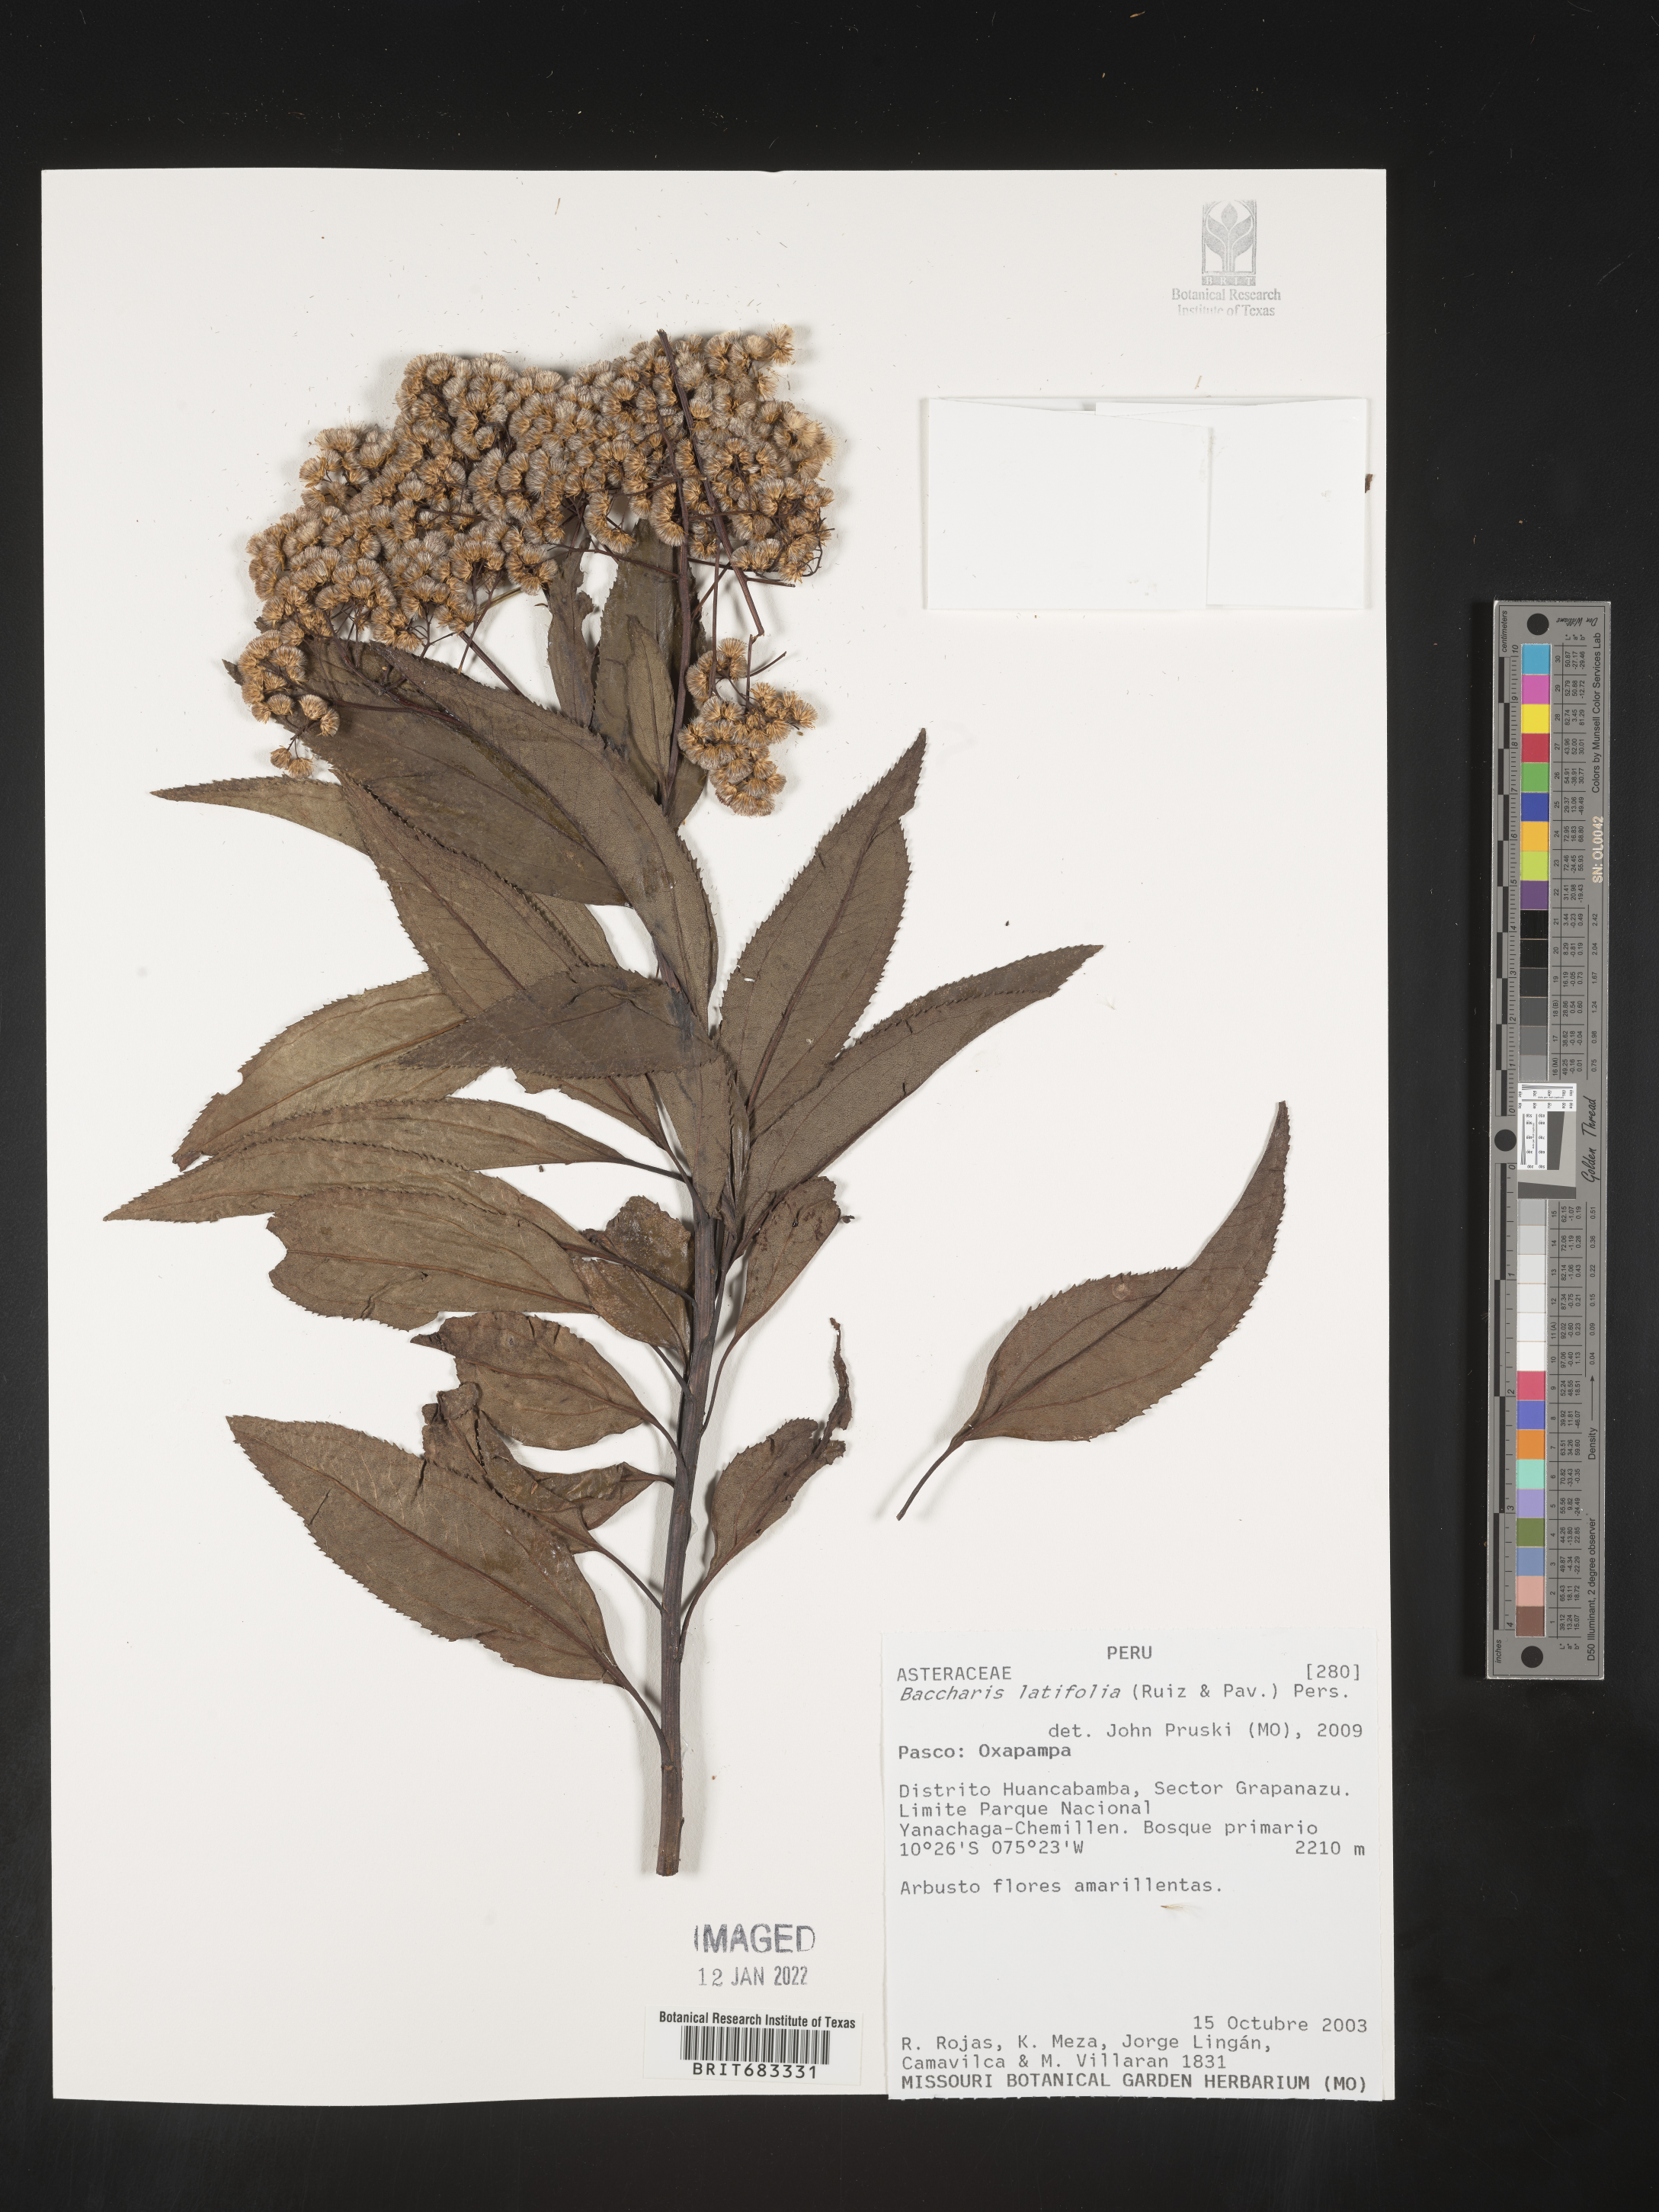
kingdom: Plantae
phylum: Tracheophyta
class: Magnoliopsida
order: Asterales
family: Asteraceae
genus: Baccharis
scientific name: Baccharis
